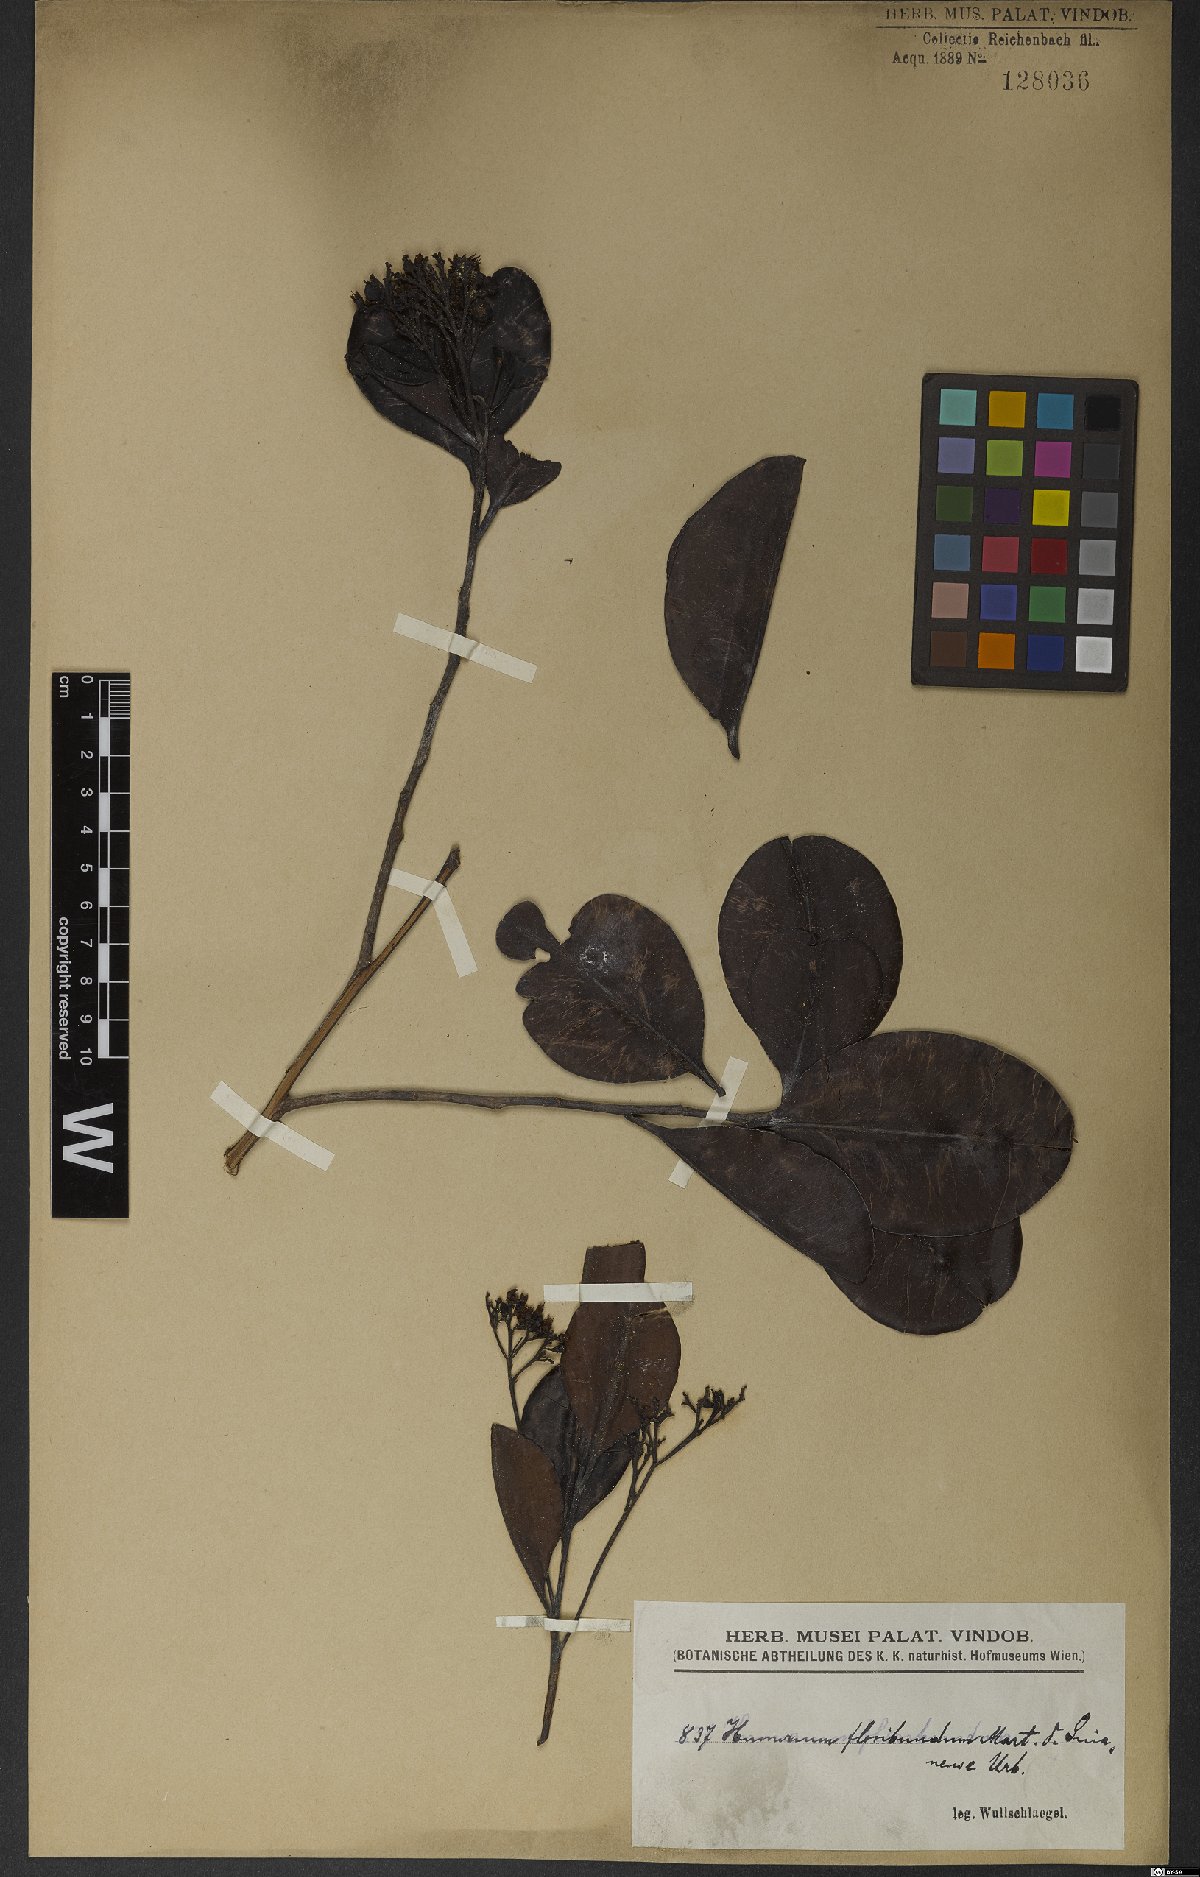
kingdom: Plantae
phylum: Tracheophyta
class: Magnoliopsida
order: Malpighiales
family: Humiriaceae
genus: Humiria
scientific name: Humiria balsamifera
